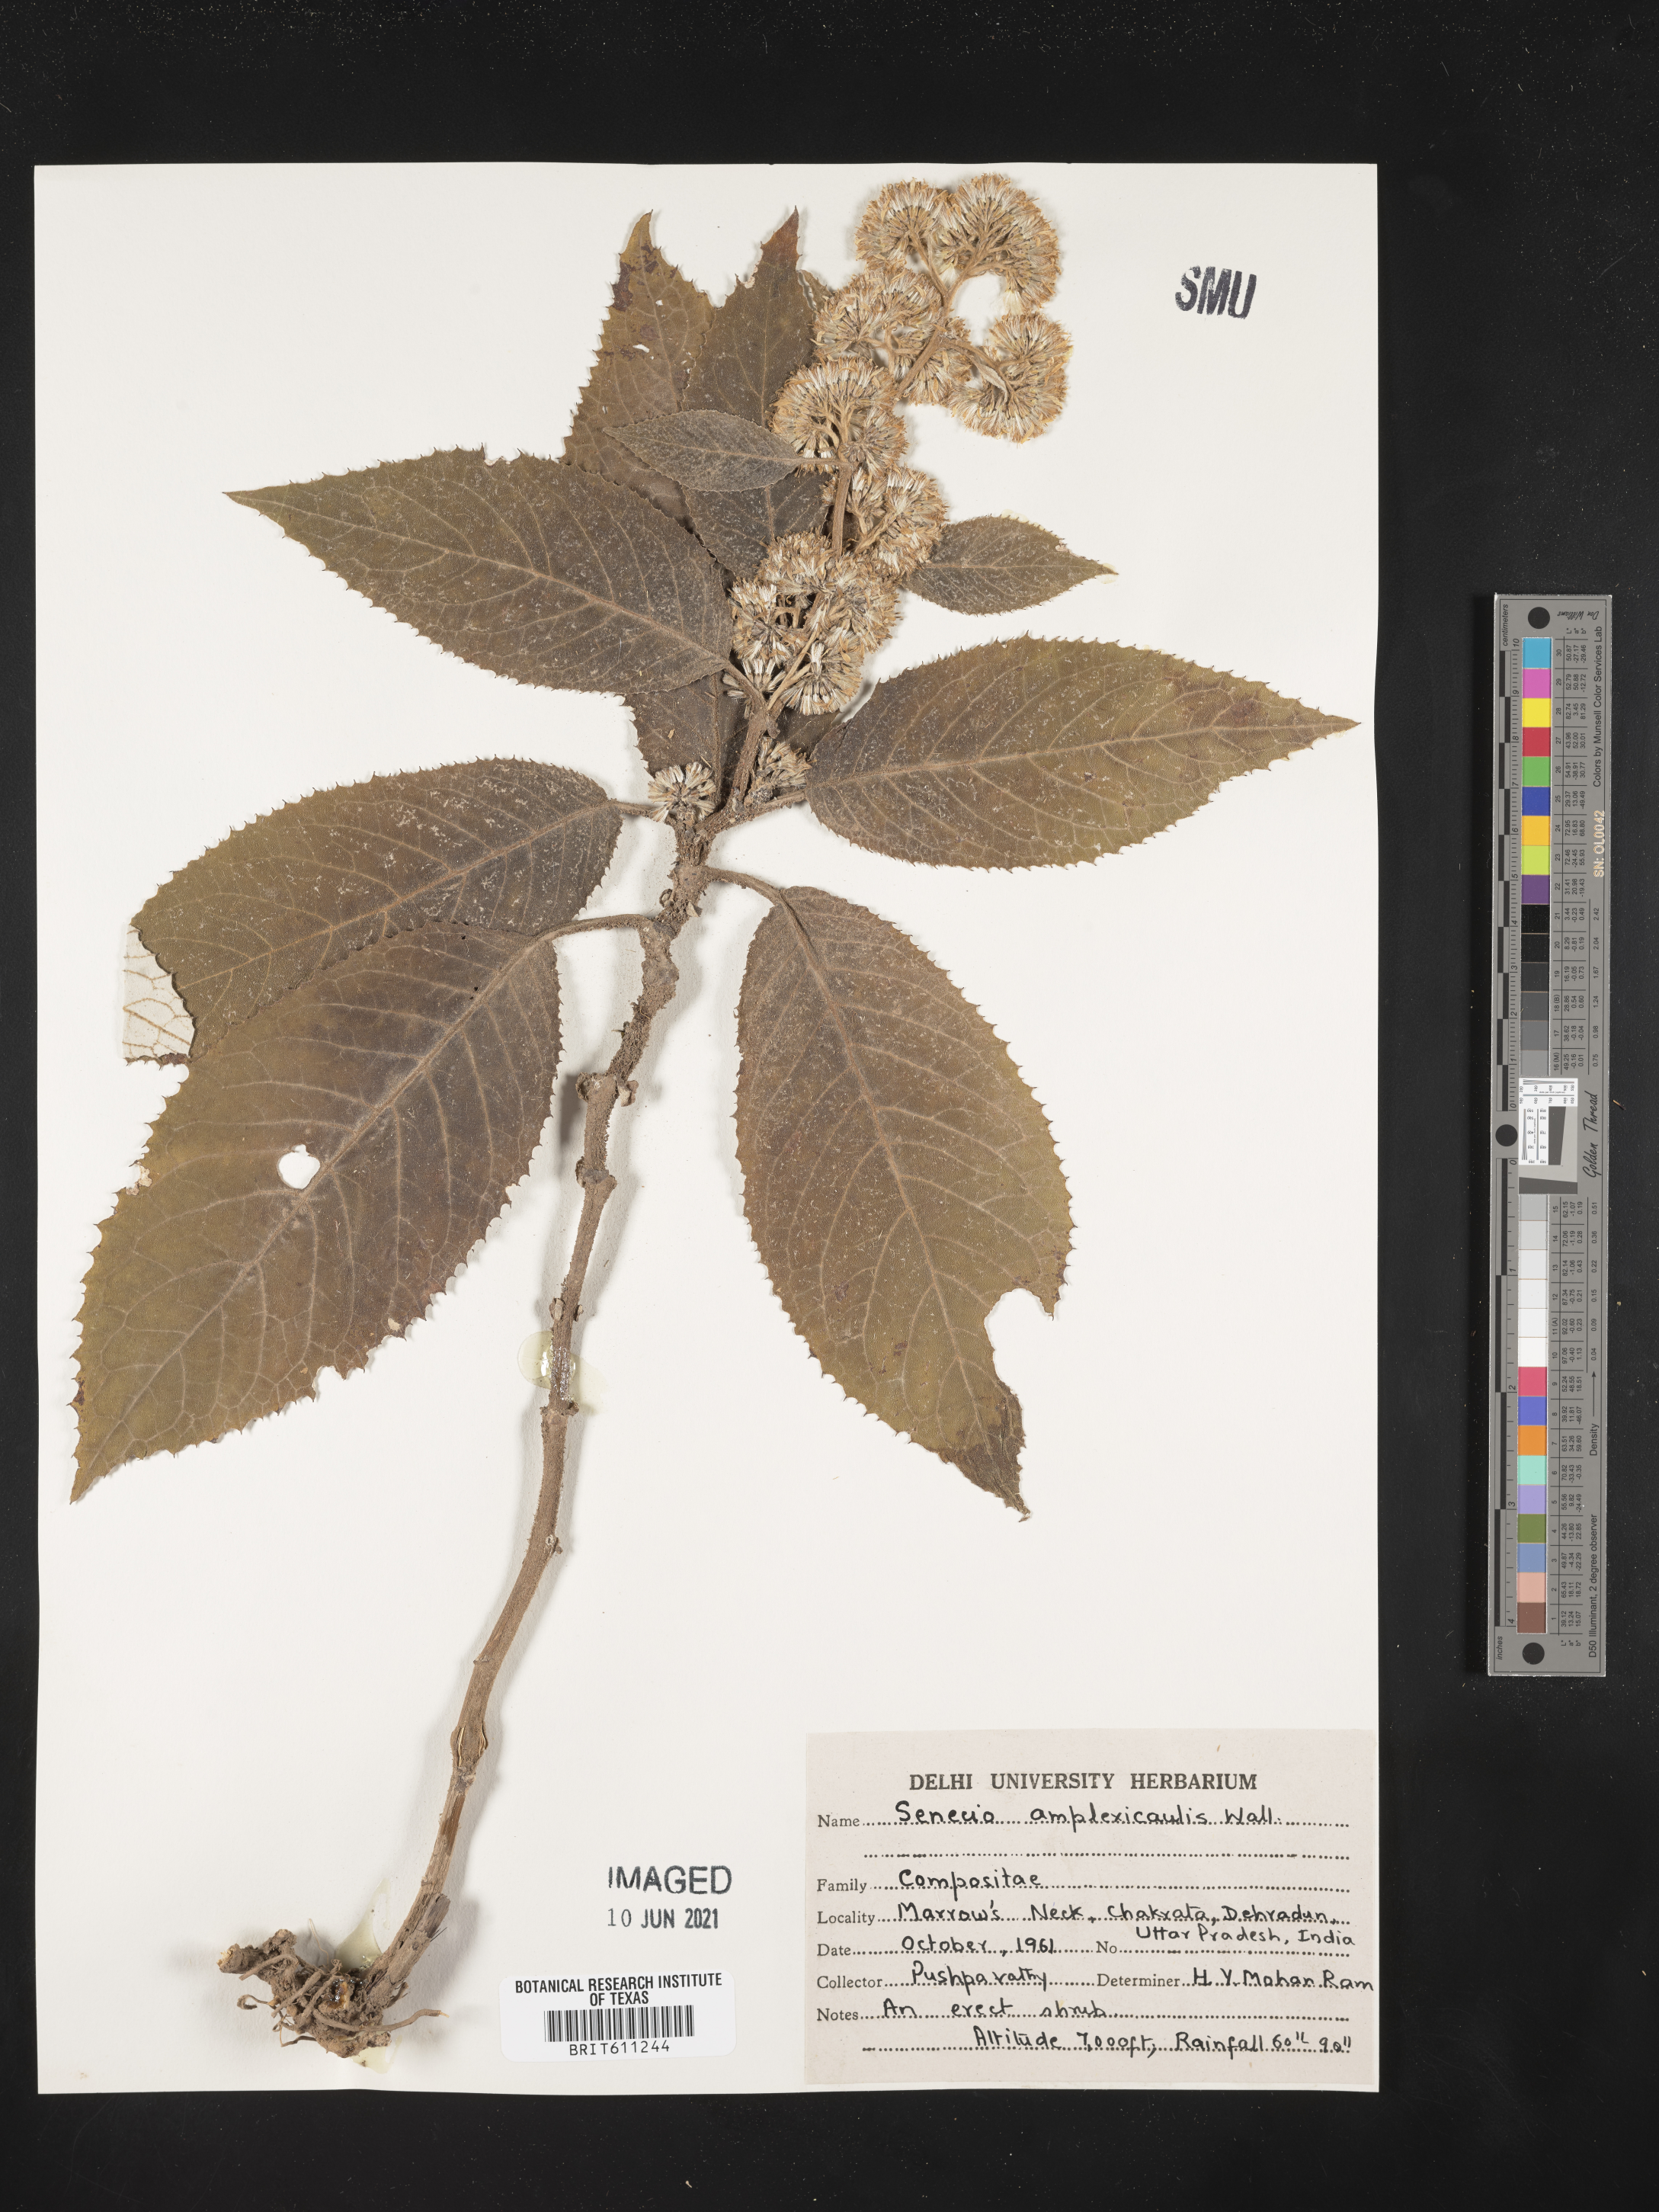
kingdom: Plantae
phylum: Tracheophyta
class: Magnoliopsida
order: Asterales
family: Asteraceae
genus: Ligularia
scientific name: Ligularia amplexicaulis
